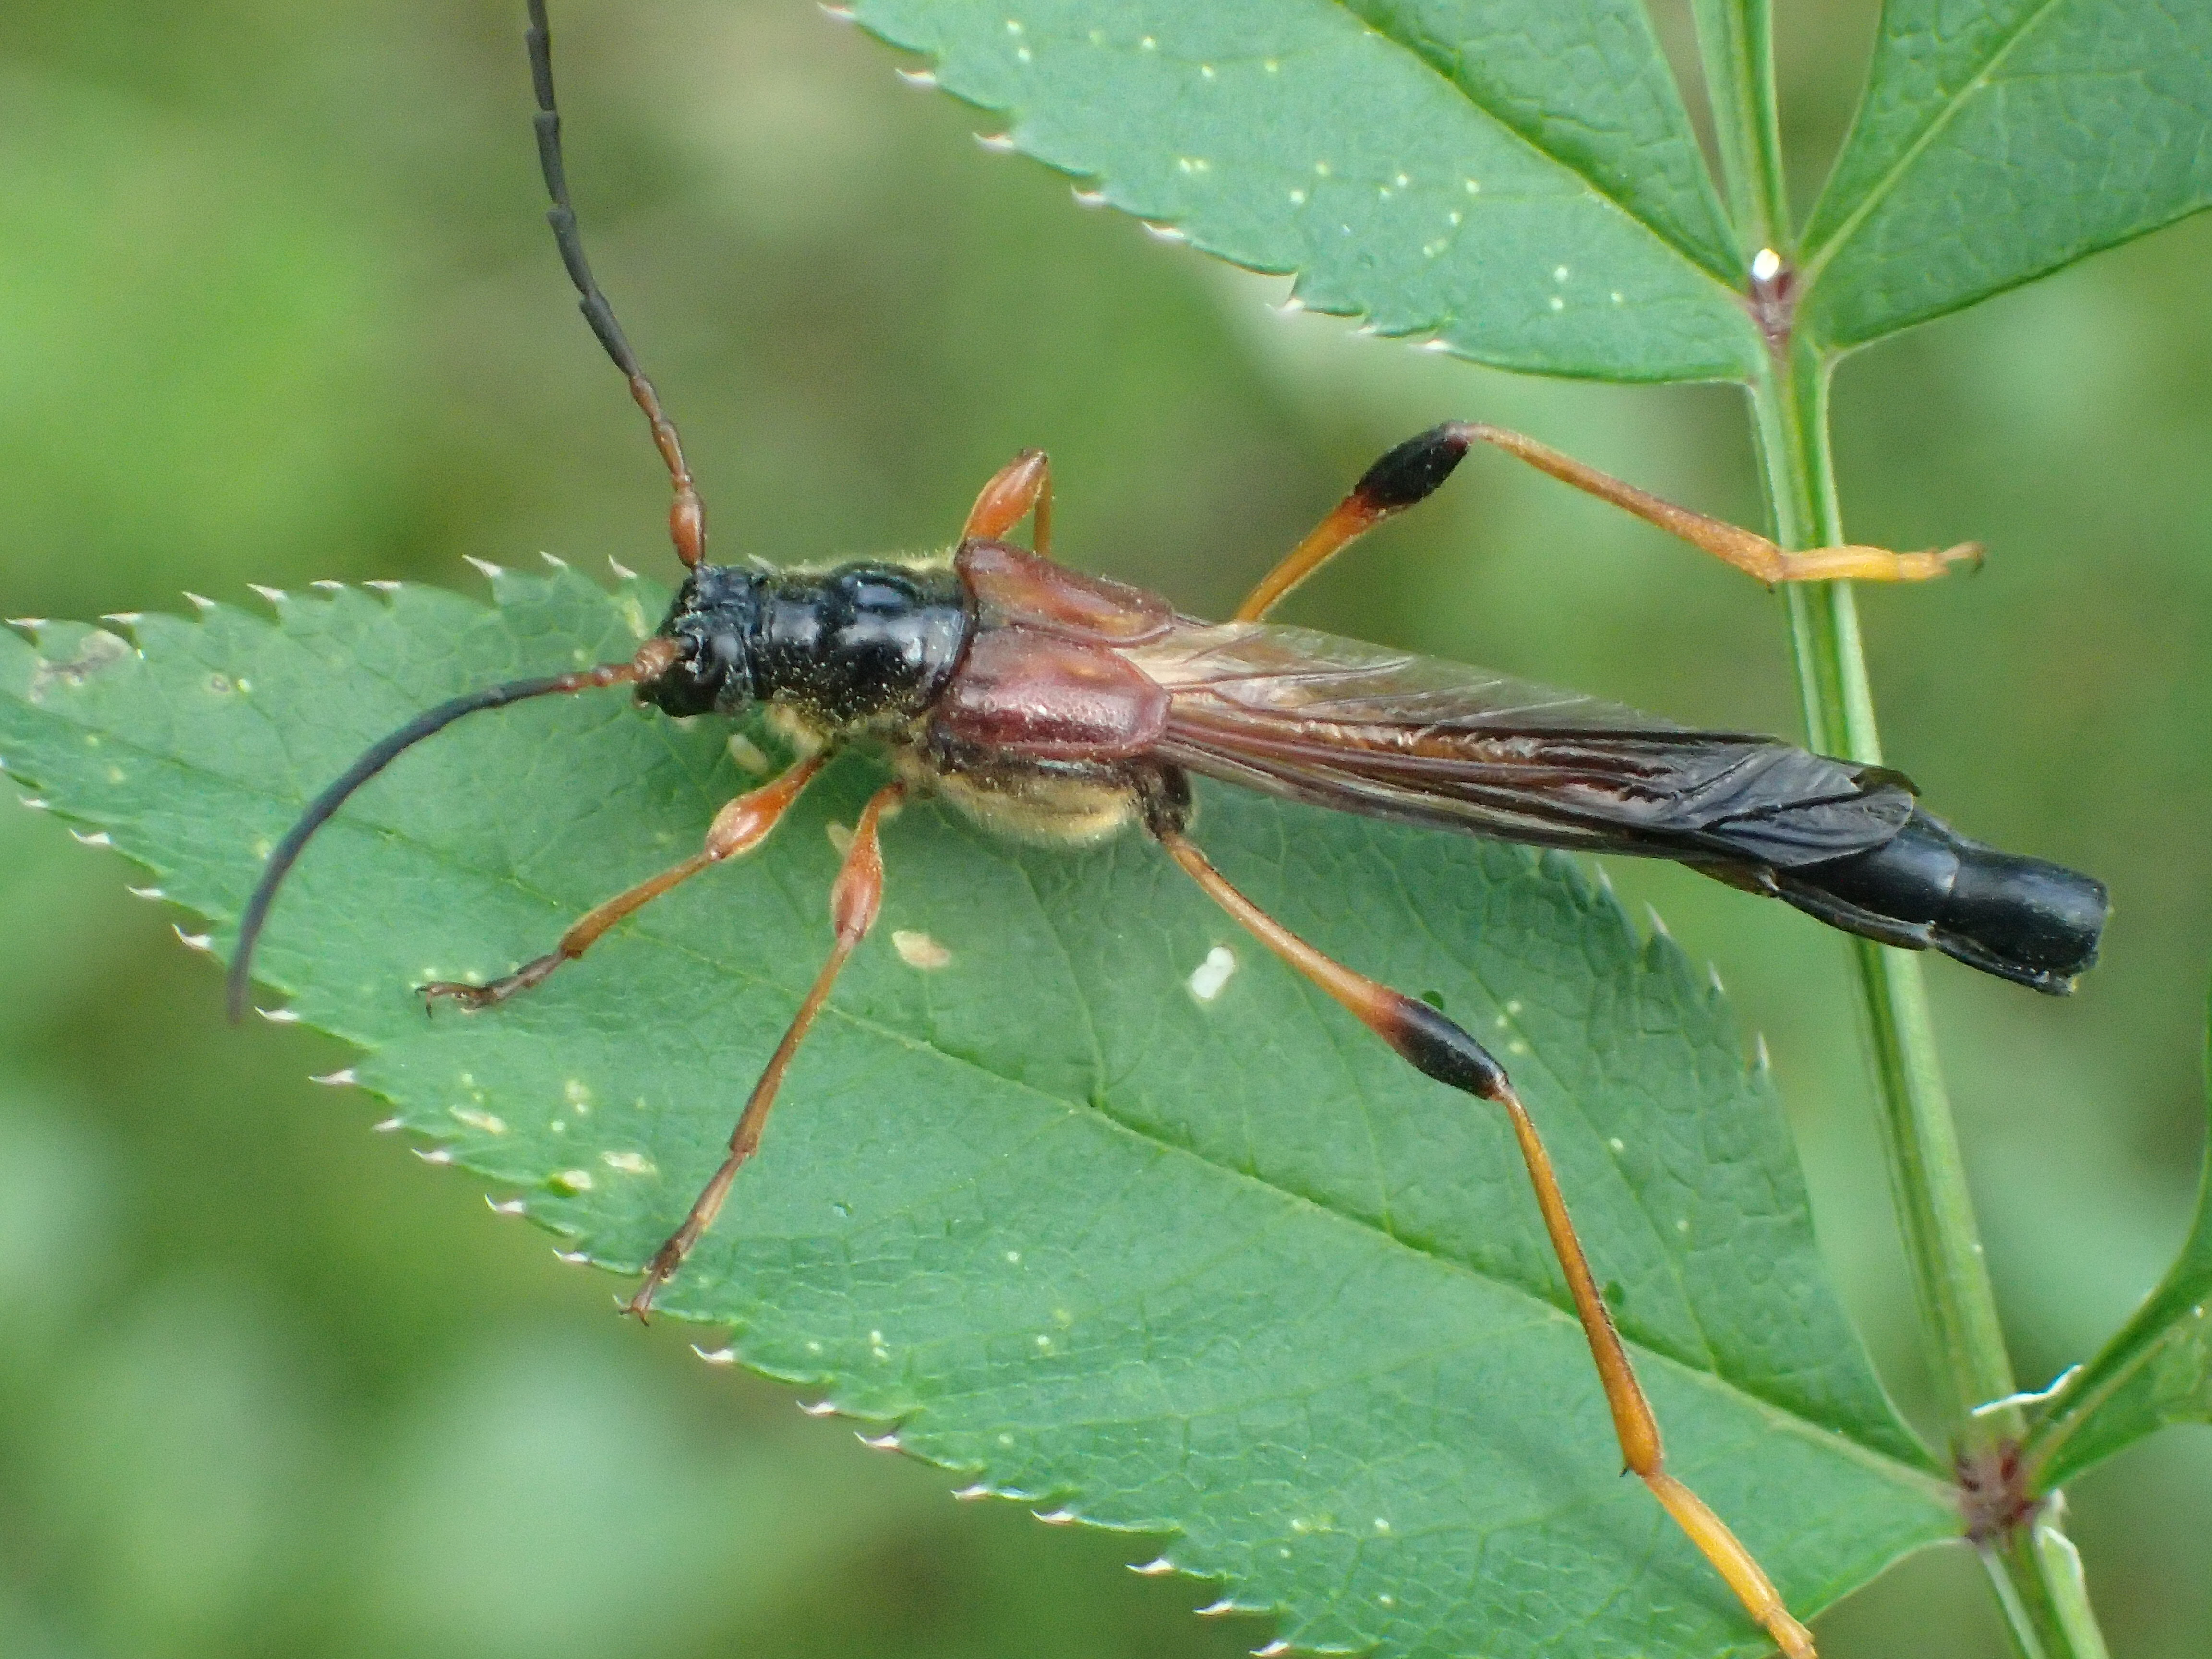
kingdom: Animalia
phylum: Arthropoda
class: Insecta
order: Coleoptera
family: Cerambycidae
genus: Necydalis
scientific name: Necydalis major
